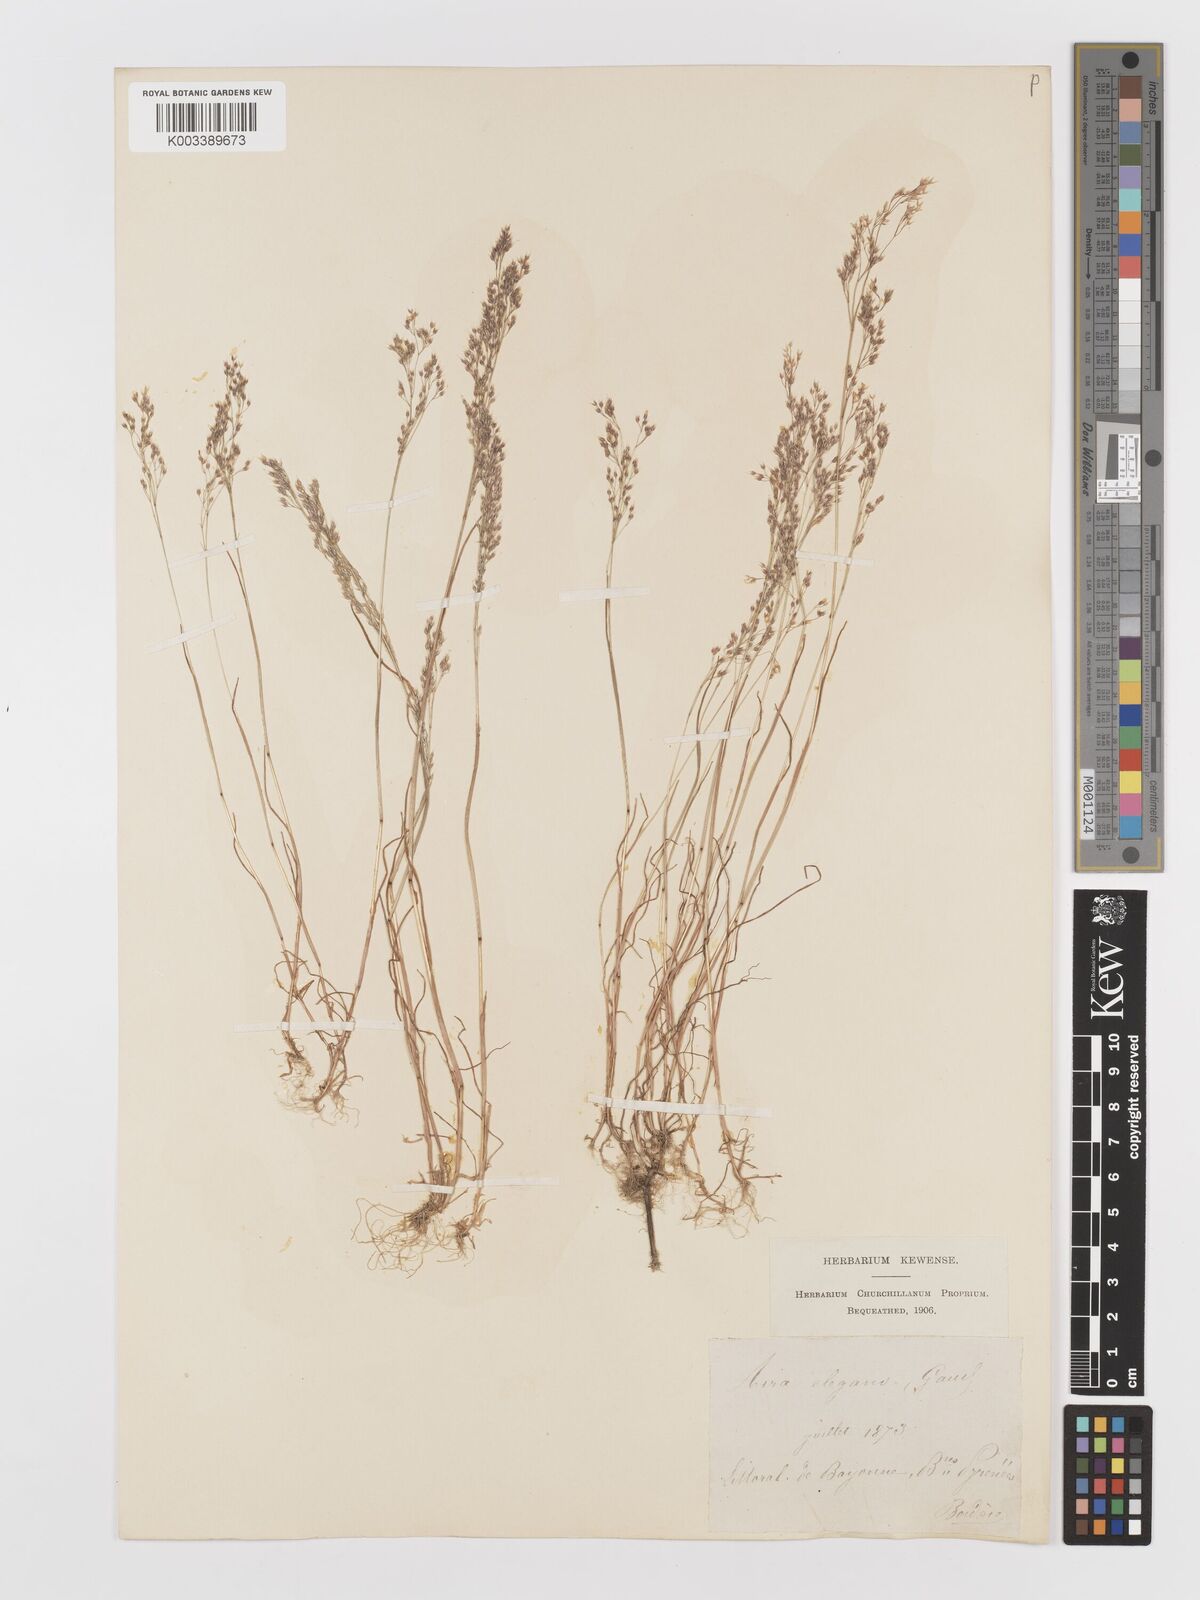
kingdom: Plantae
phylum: Tracheophyta
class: Liliopsida
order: Poales
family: Poaceae
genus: Aira
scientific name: Aira caryophyllea
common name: Silver hairgrass
